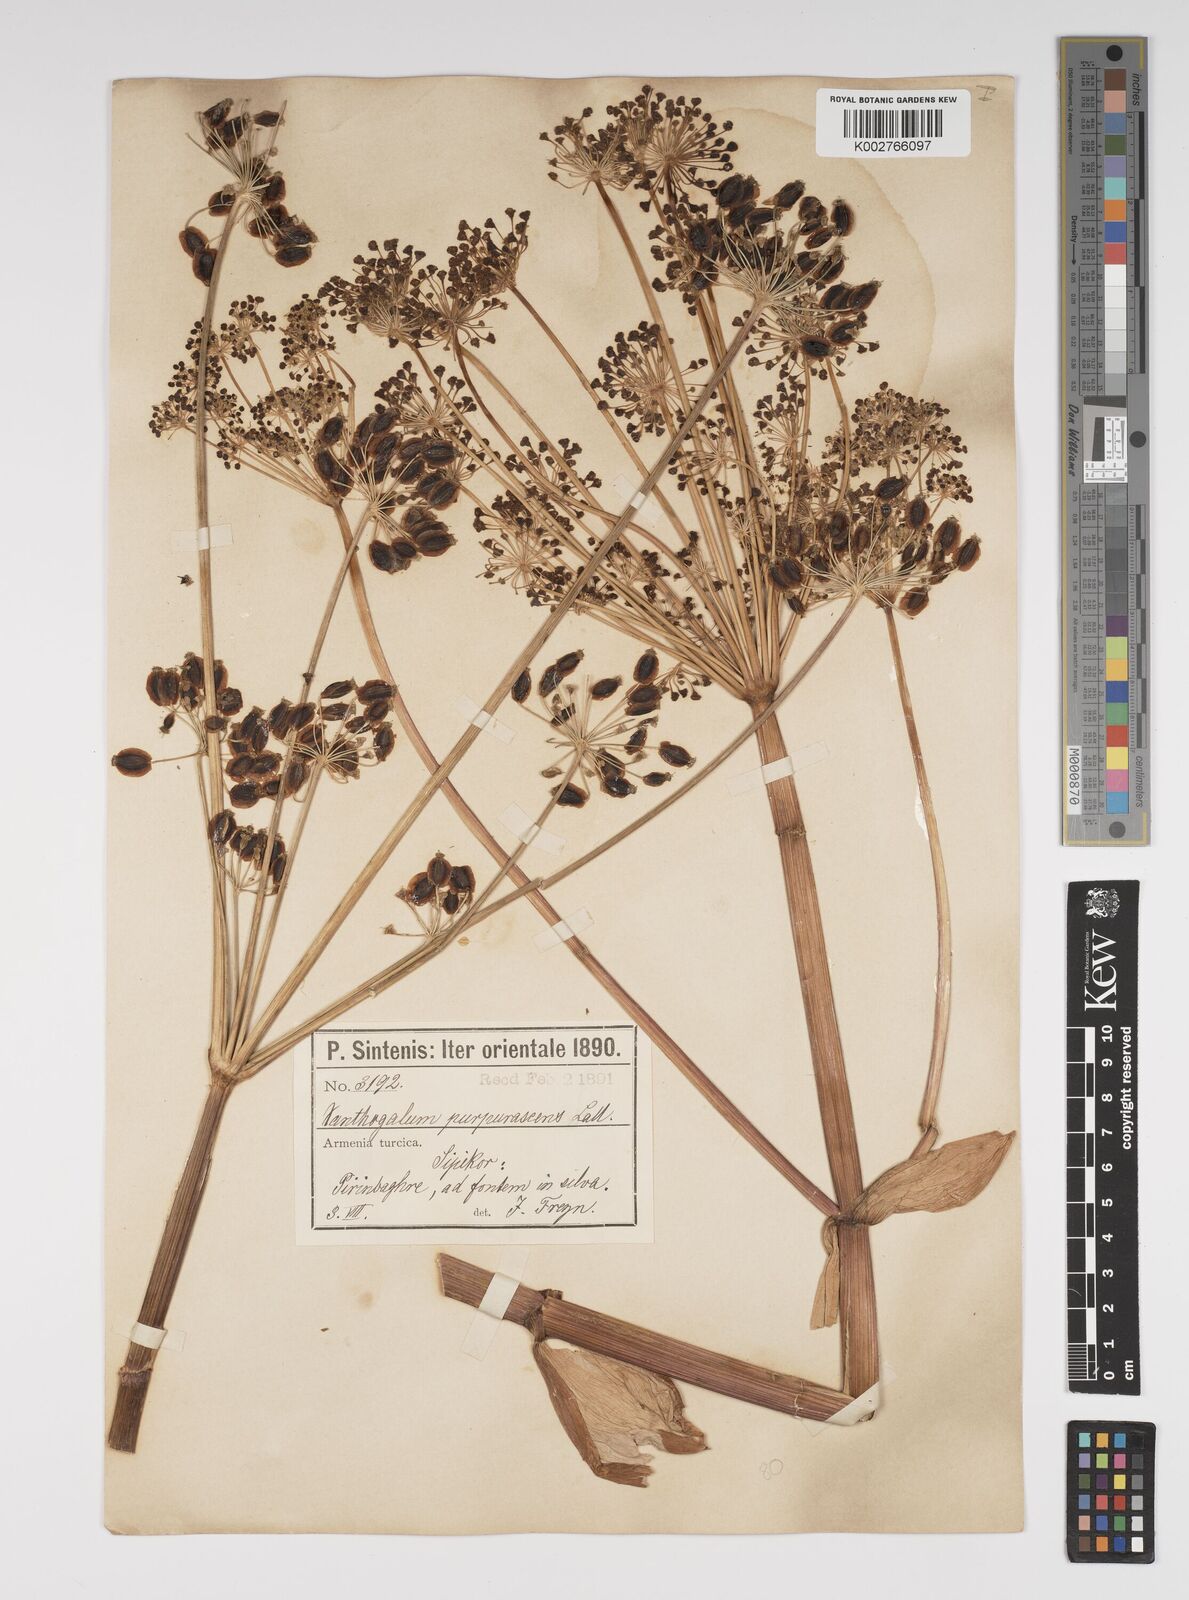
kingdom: Plantae
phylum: Tracheophyta
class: Magnoliopsida
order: Apiales
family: Apiaceae
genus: Xanthogalum
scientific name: Xanthogalum purpurascens
